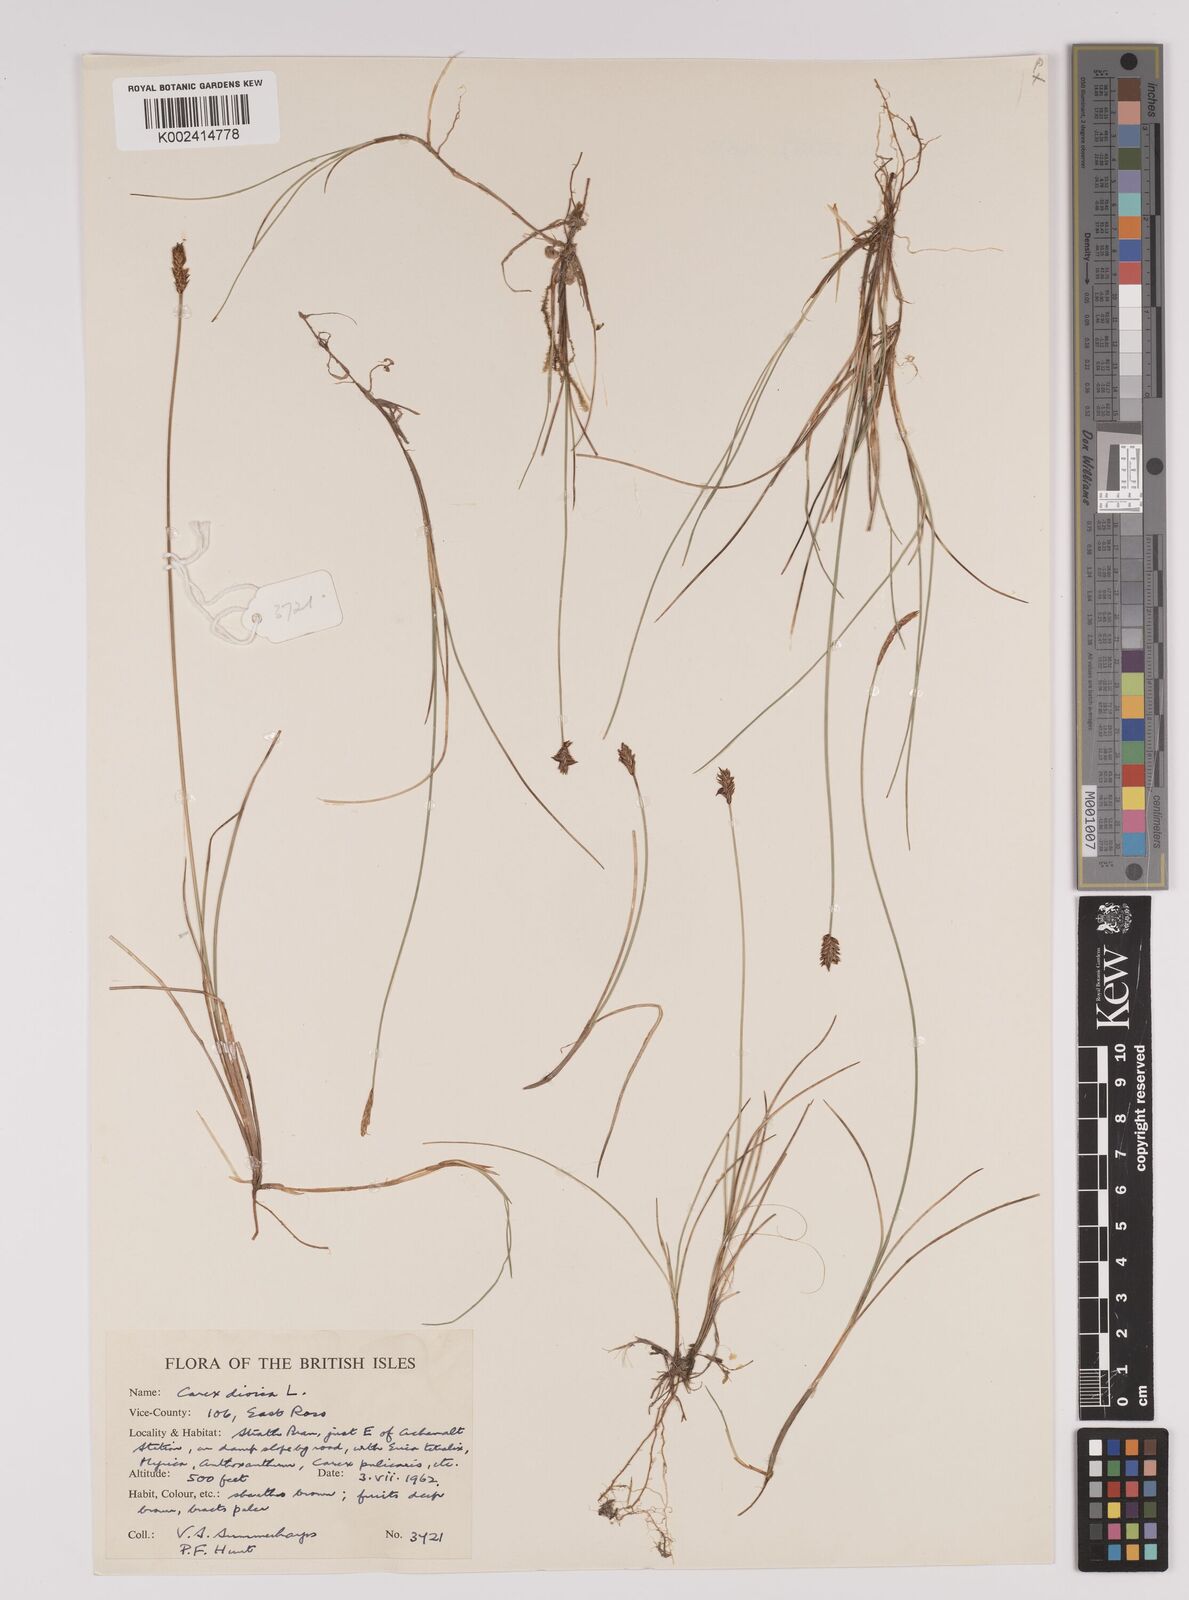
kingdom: Plantae
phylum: Tracheophyta
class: Liliopsida
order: Poales
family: Cyperaceae
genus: Carex
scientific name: Carex dioica
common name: Dioecious sedge
